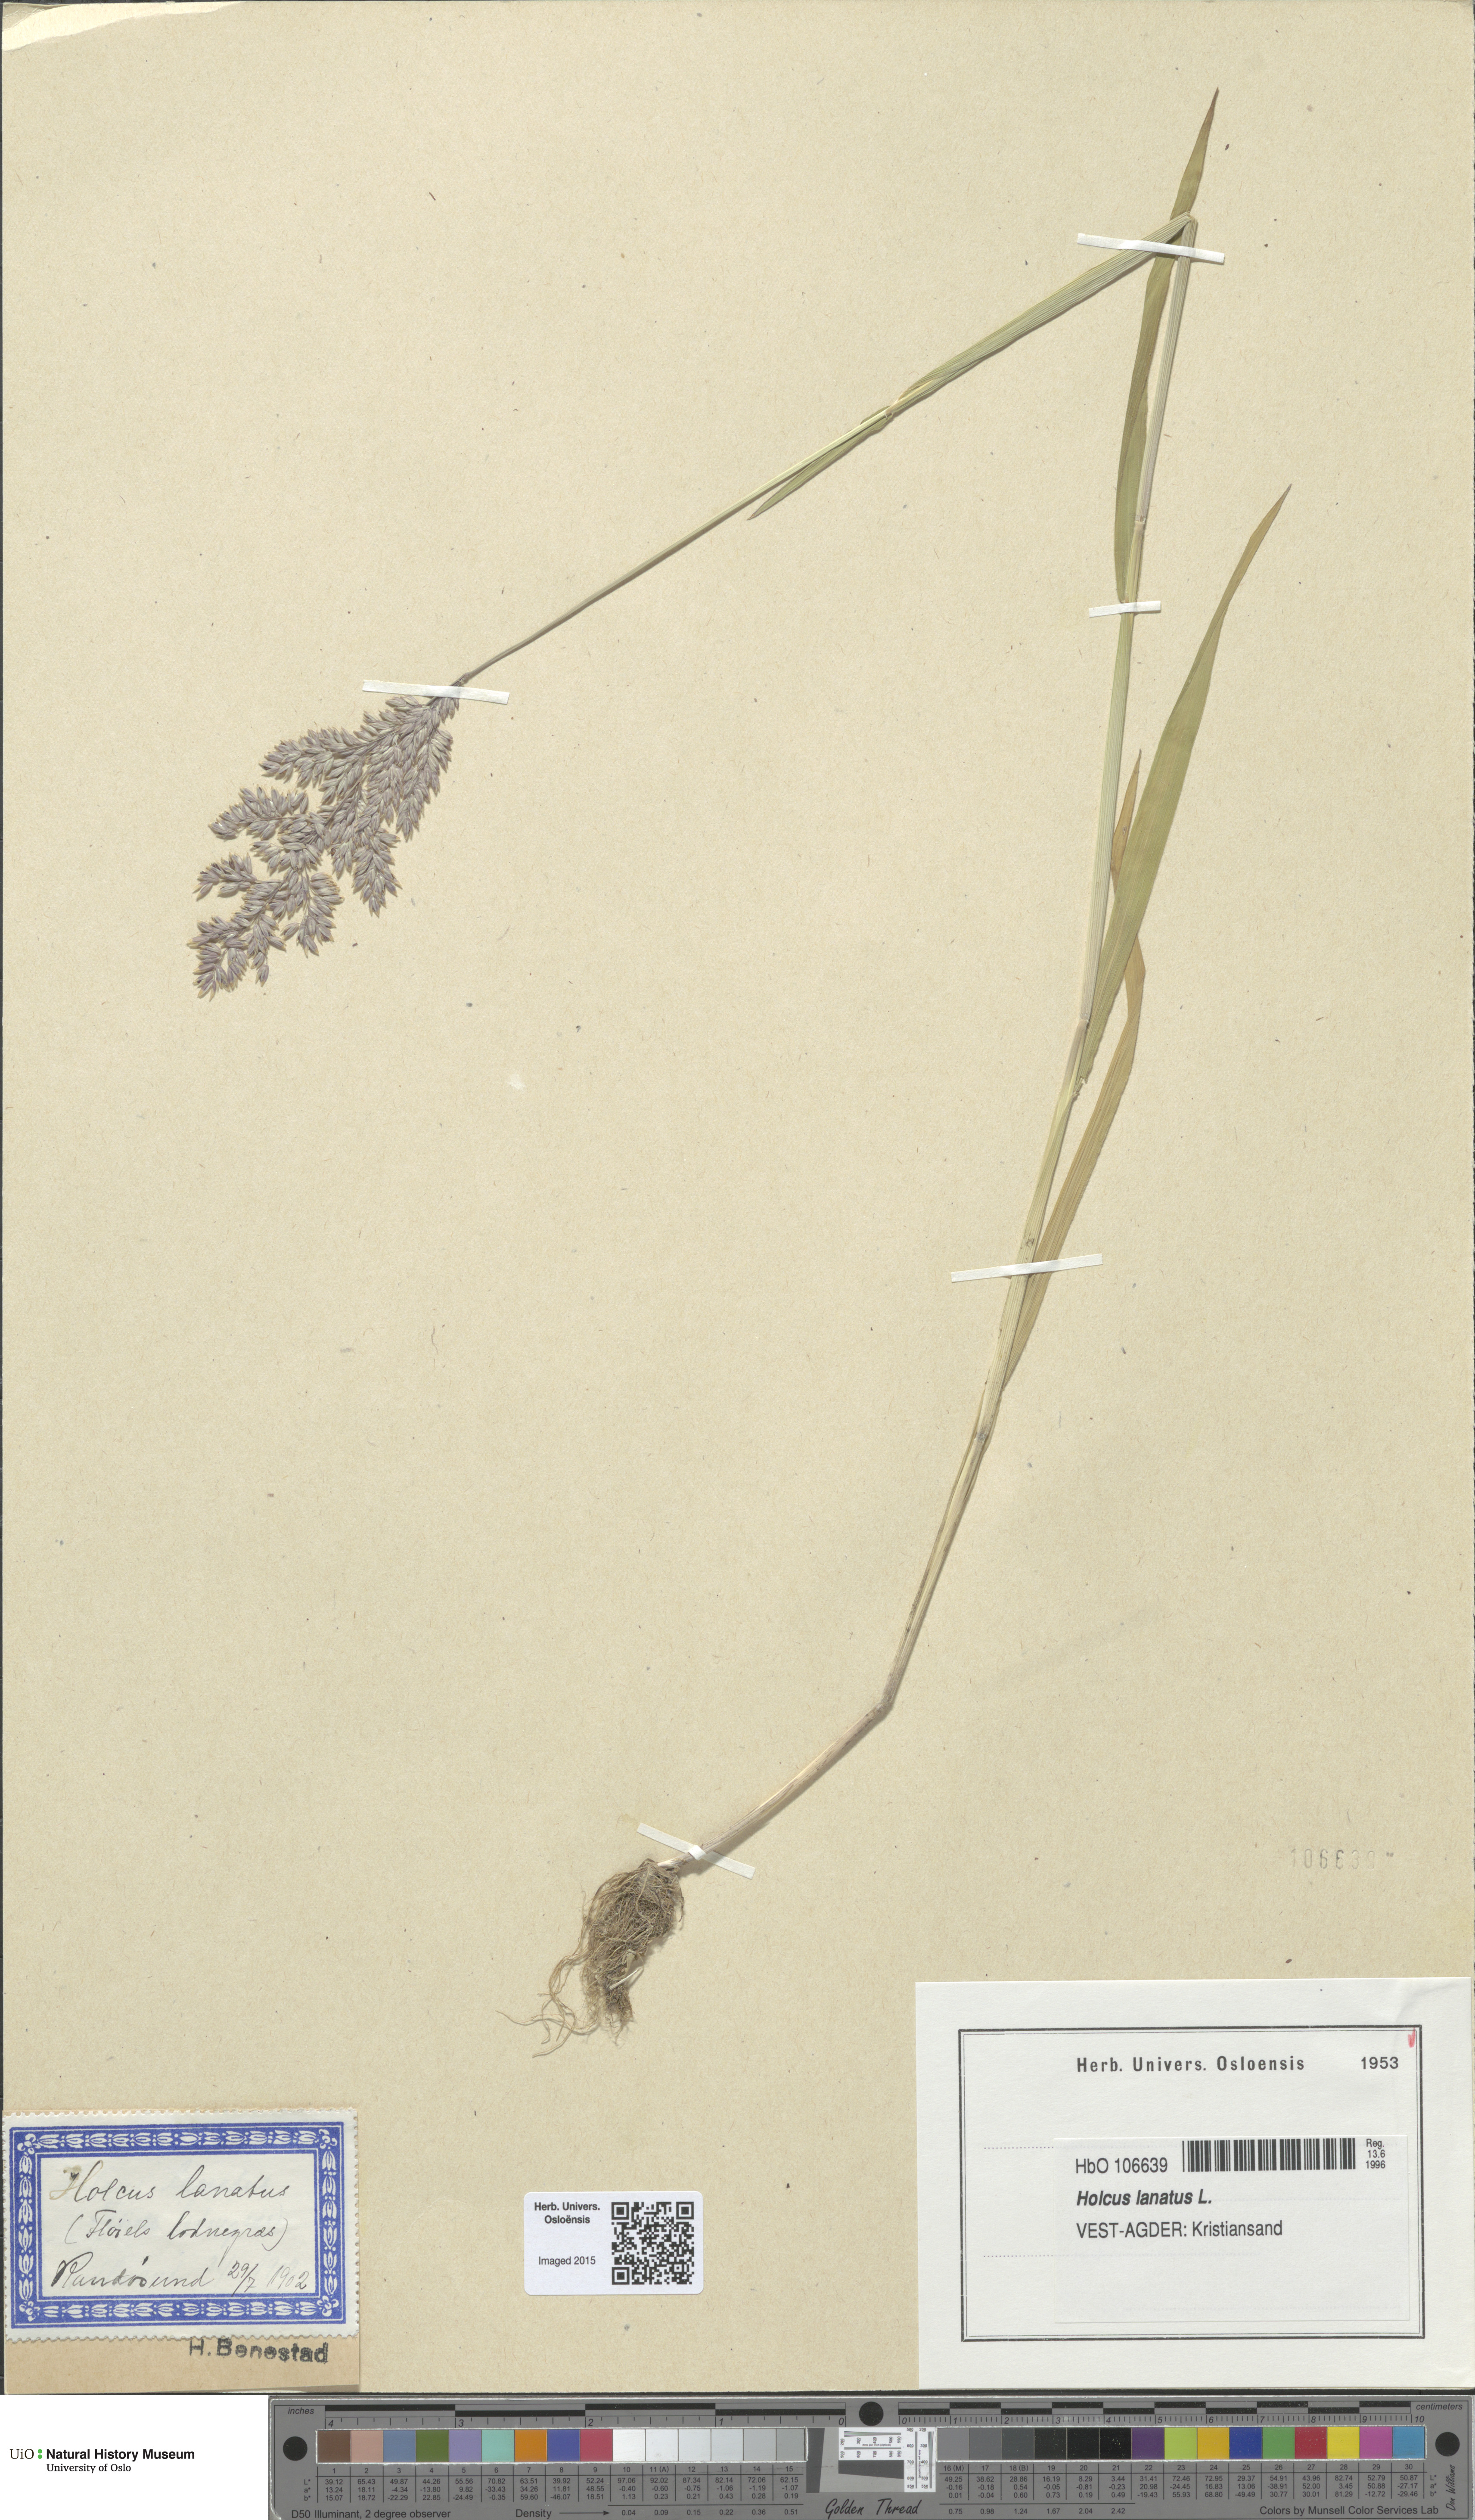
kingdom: Plantae
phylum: Tracheophyta
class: Liliopsida
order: Poales
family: Poaceae
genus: Holcus
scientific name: Holcus lanatus
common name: Yorkshire-fog
